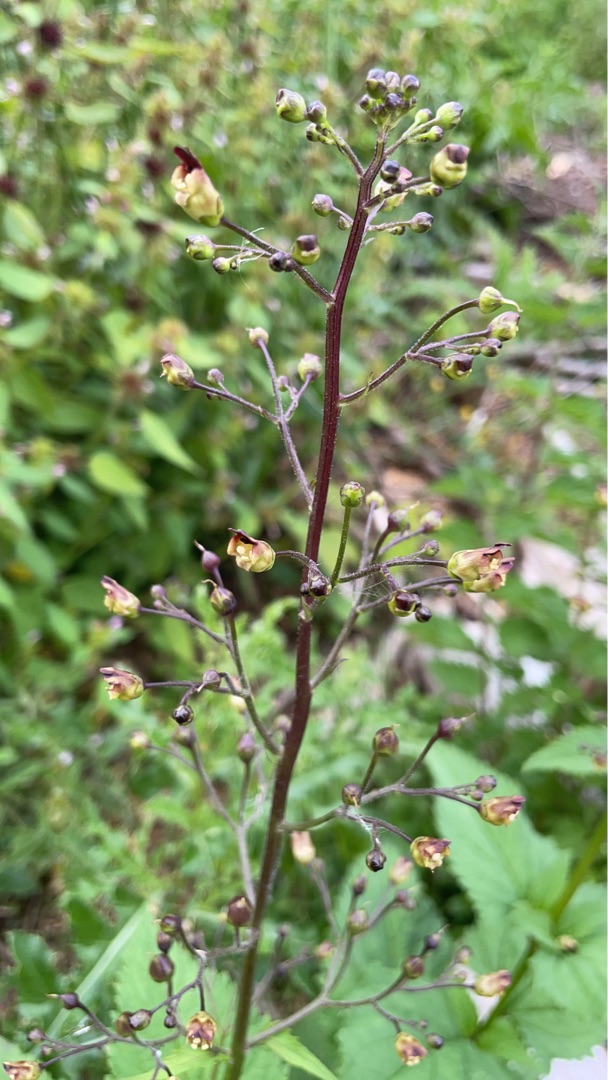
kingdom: Plantae
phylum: Tracheophyta
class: Magnoliopsida
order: Lamiales
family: Scrophulariaceae
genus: Scrophularia
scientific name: Scrophularia nodosa
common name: Knoldet brunrod
